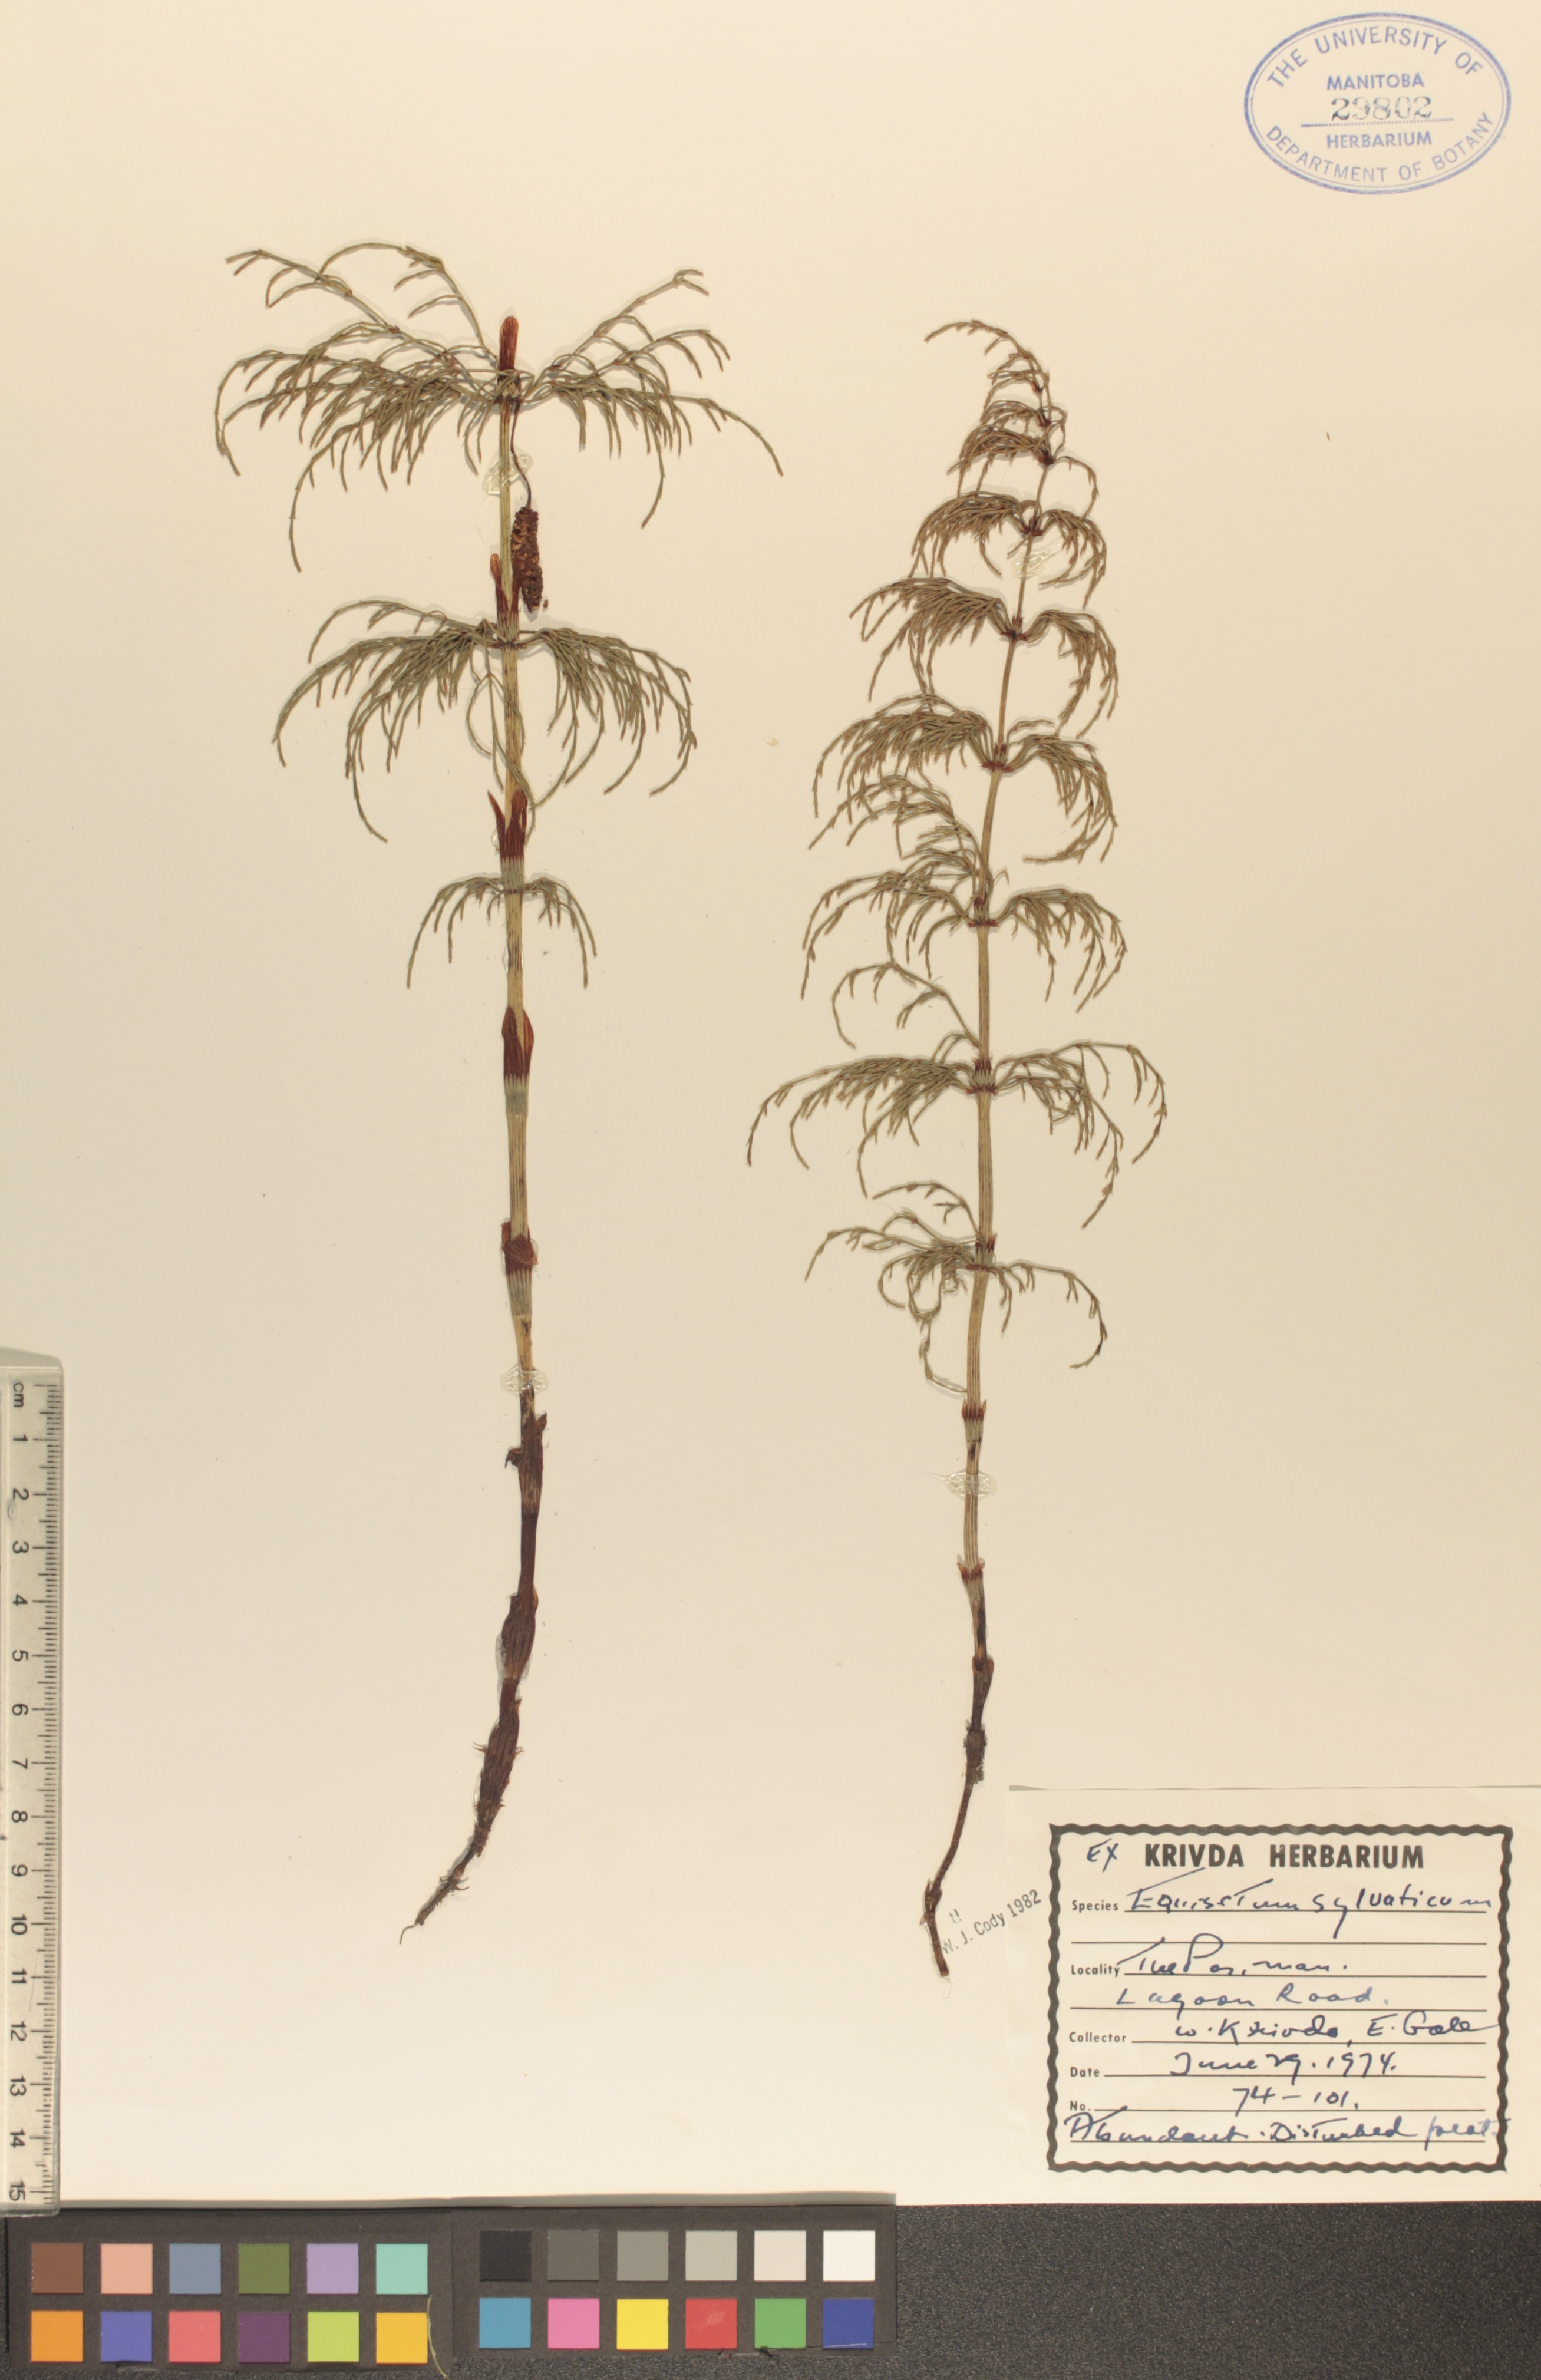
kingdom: Plantae
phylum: Tracheophyta
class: Polypodiopsida
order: Equisetales
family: Equisetaceae
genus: Equisetum
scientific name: Equisetum sylvaticum
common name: Wood horsetail
